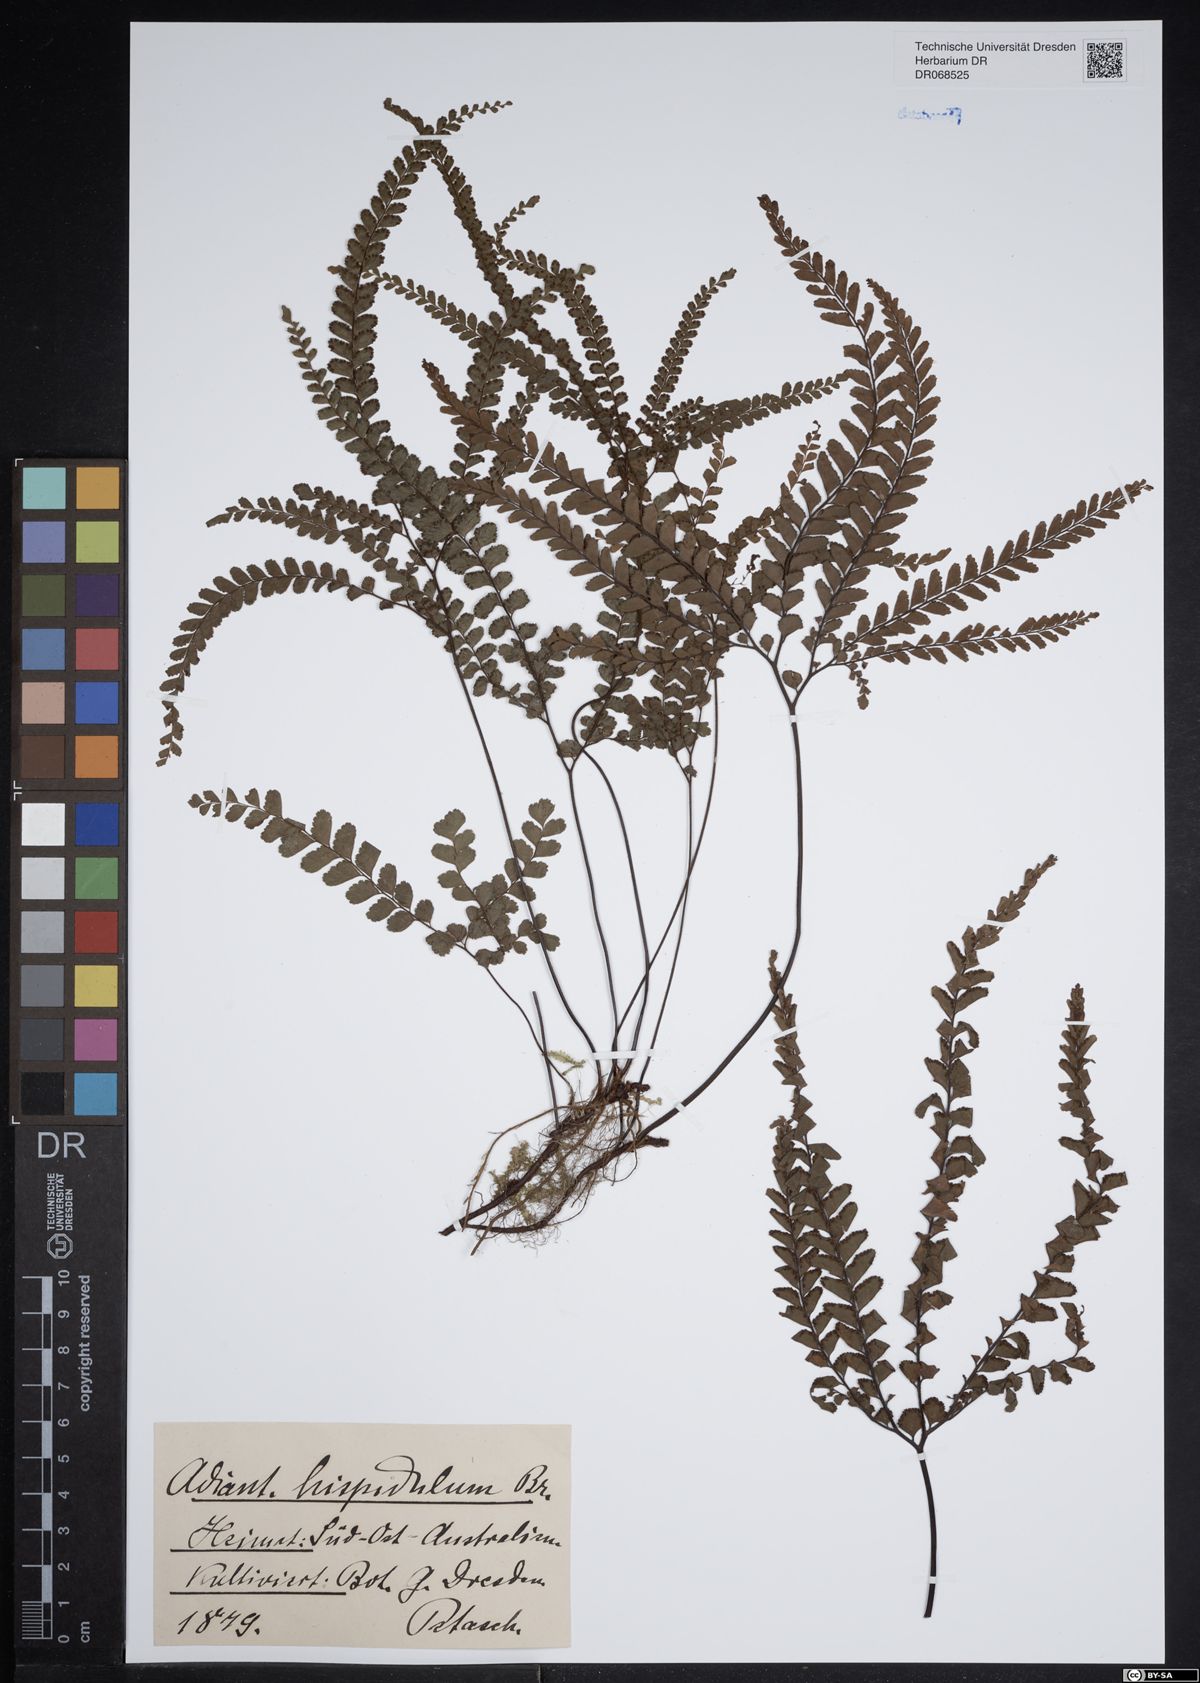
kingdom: Plantae
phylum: Tracheophyta
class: Polypodiopsida
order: Polypodiales
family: Pteridaceae
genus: Adiantum
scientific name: Adiantum hispidulum
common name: Rough maidenhair
